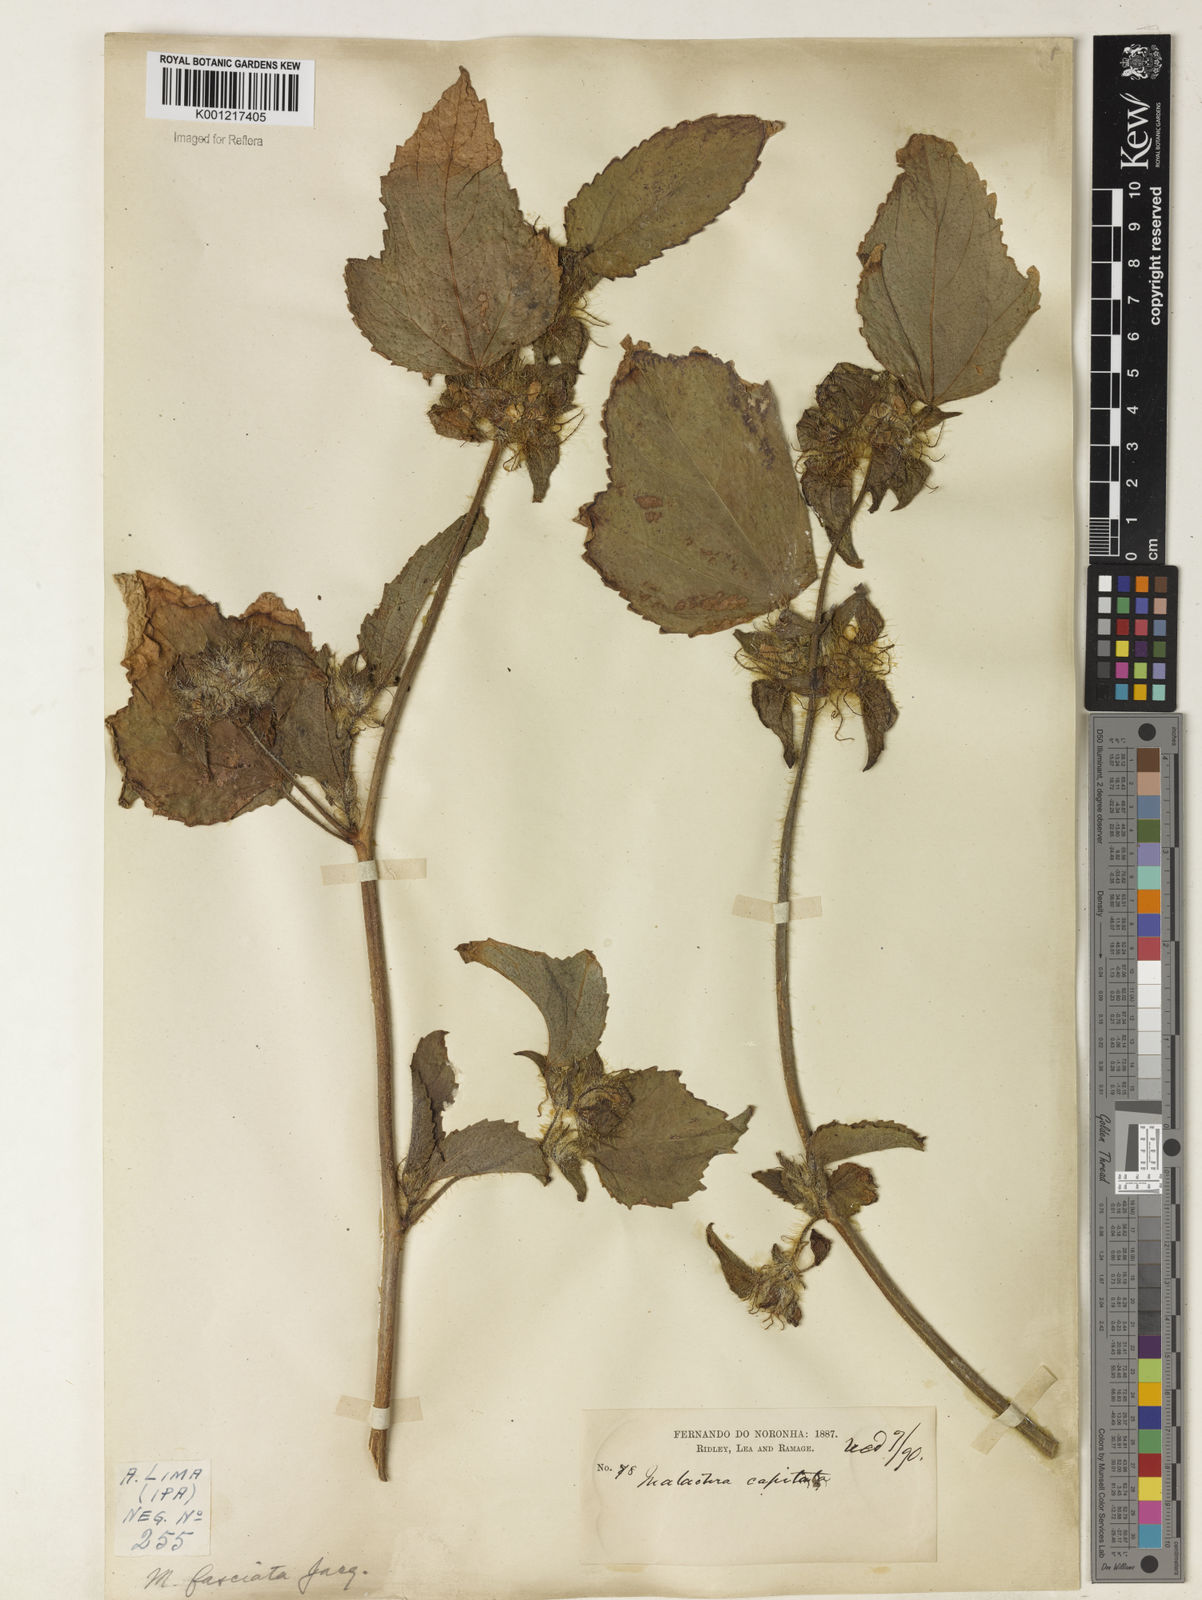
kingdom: Plantae
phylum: Tracheophyta
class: Magnoliopsida
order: Malvales
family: Malvaceae
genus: Malachra
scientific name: Malachra fasciata
